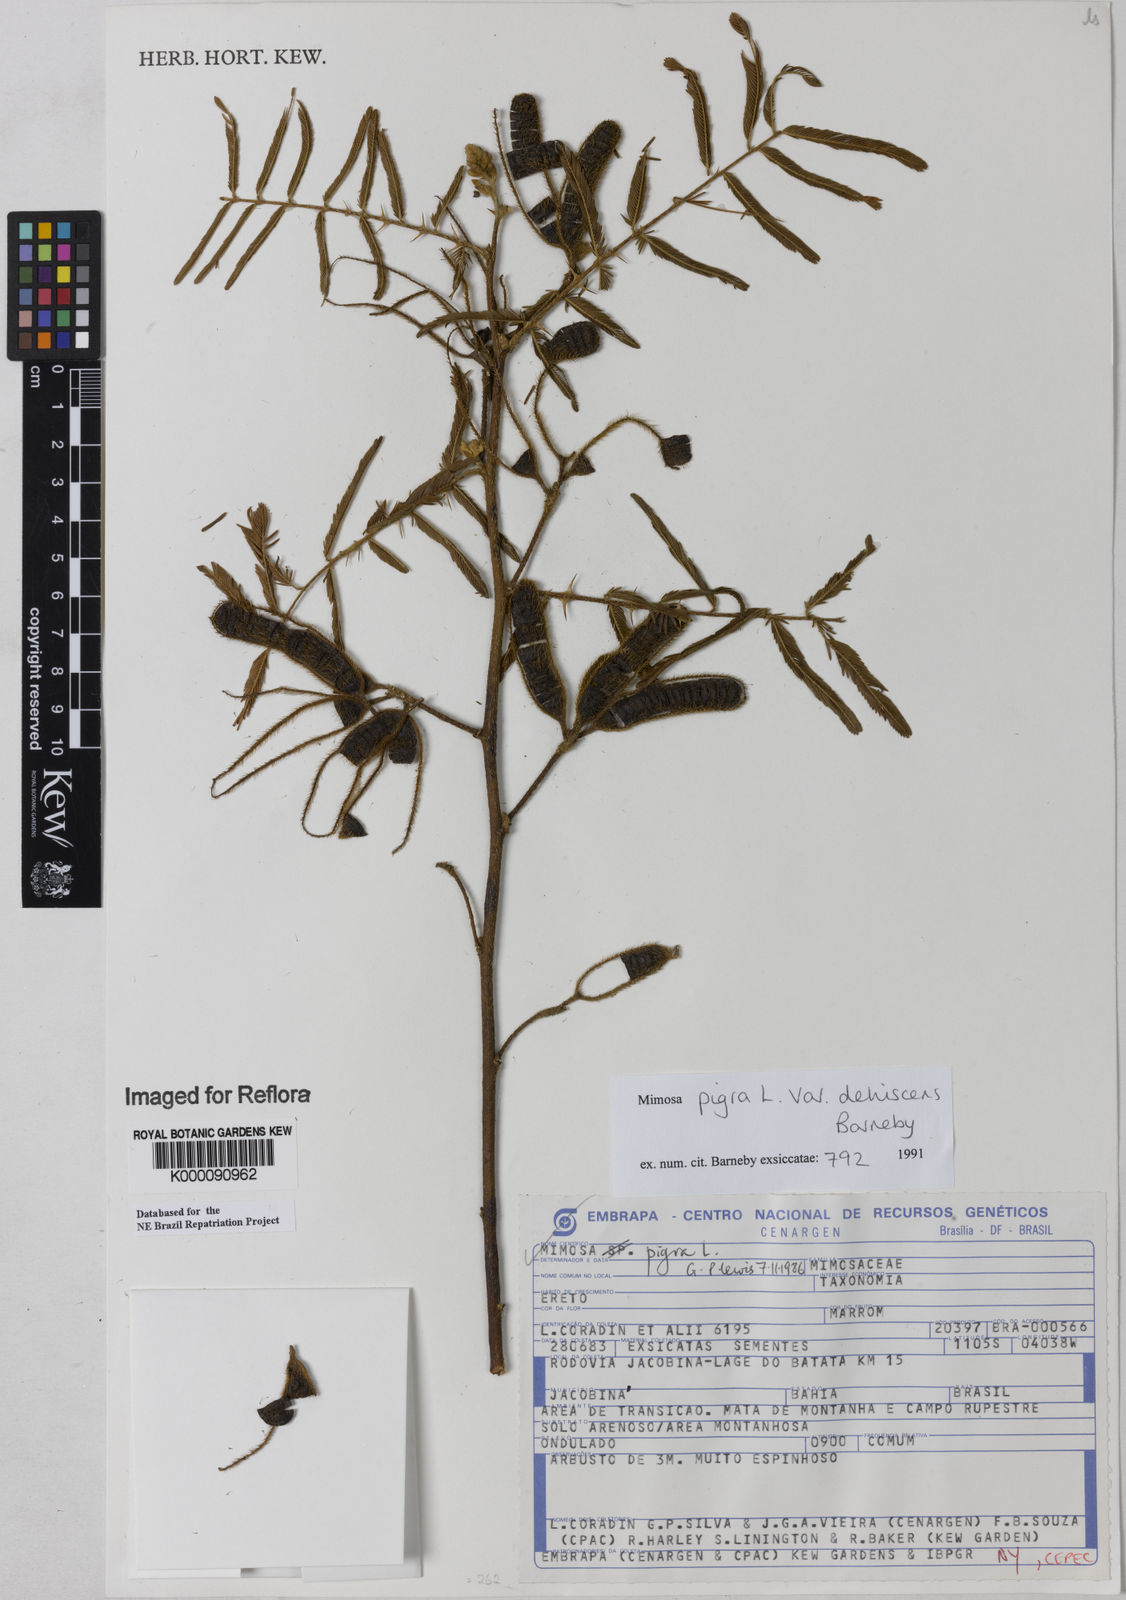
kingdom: Plantae
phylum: Tracheophyta
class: Magnoliopsida
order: Fabales
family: Fabaceae
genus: Mimosa
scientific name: Mimosa pigra
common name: Black mimosa
